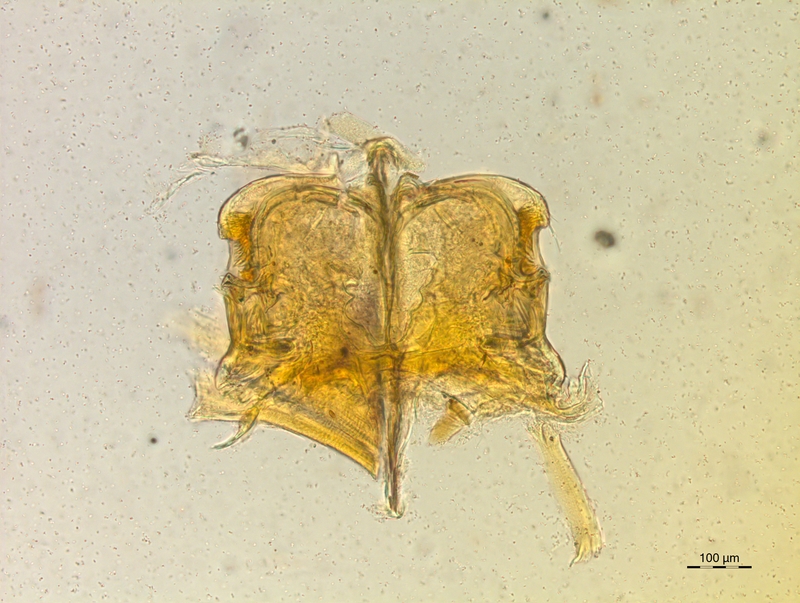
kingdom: Animalia
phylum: Arthropoda
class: Diplopoda
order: Chordeumatida
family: Craspedosomatidae
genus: Craspedosoma
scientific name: Craspedosoma taurinorum
